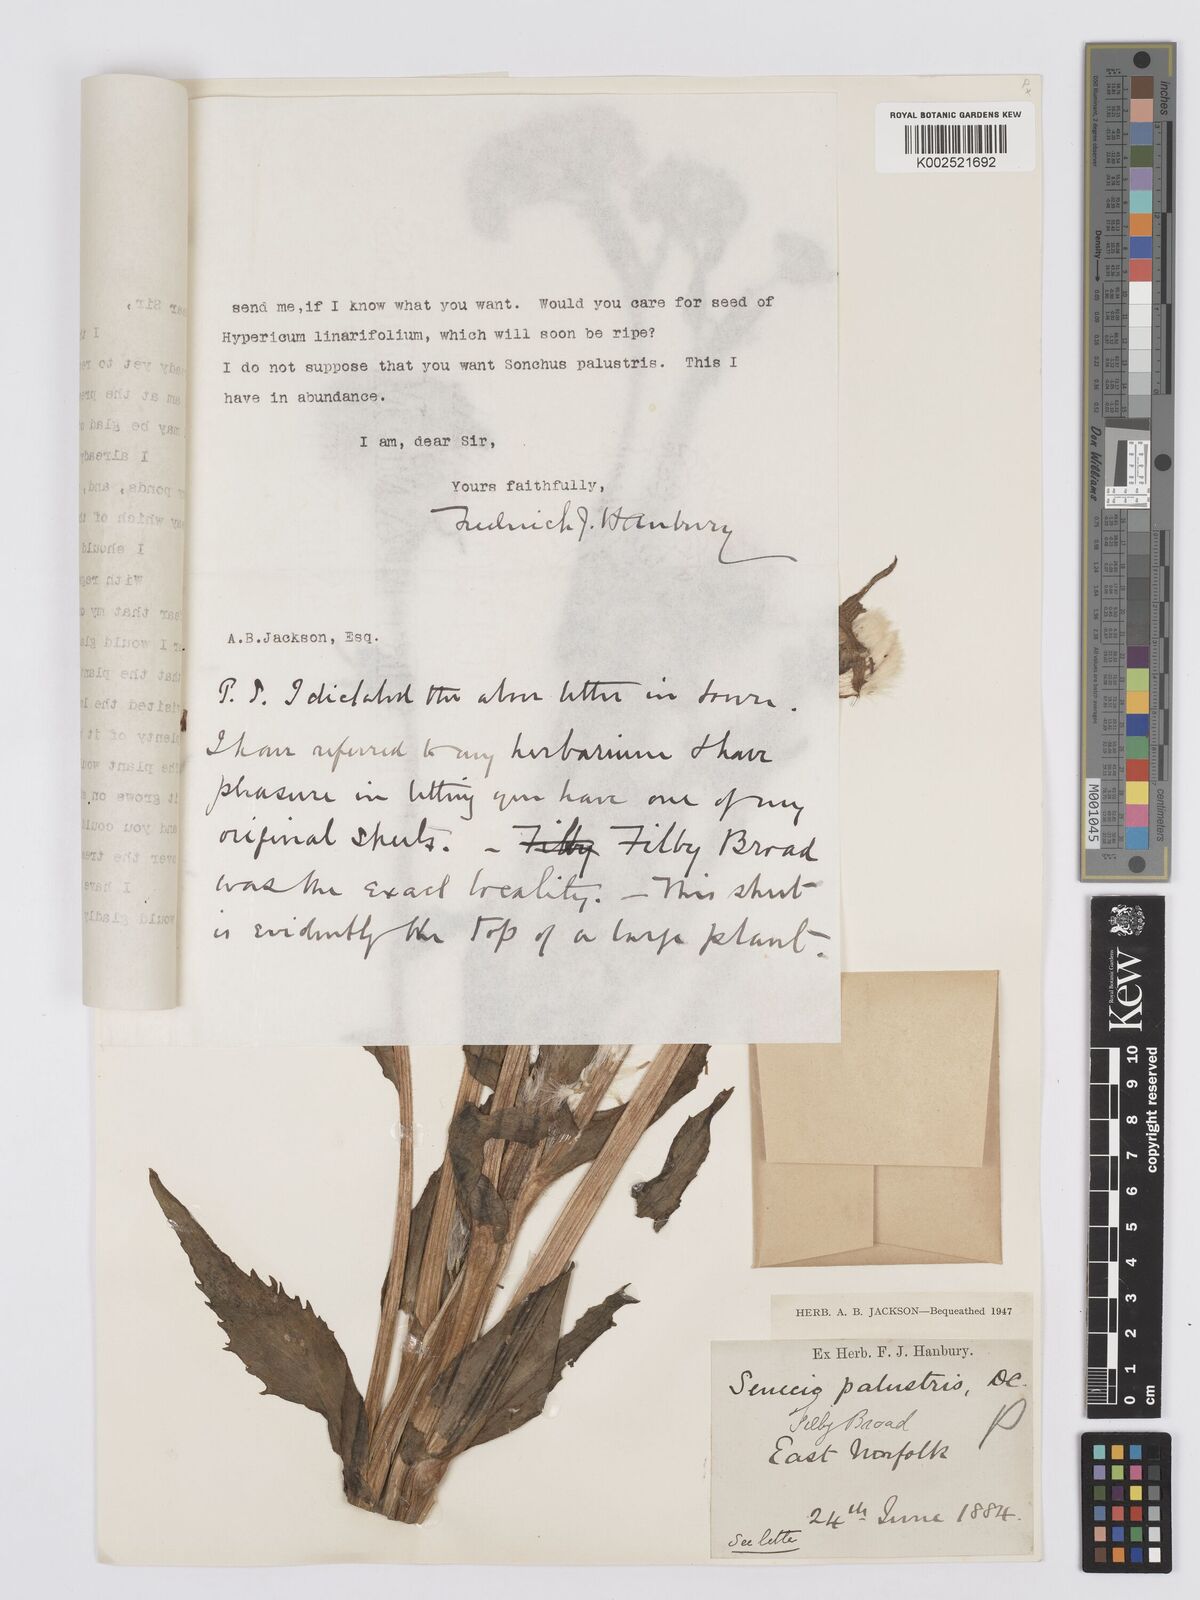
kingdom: Plantae
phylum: Tracheophyta
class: Magnoliopsida
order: Asterales
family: Asteraceae
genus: Tephroseris
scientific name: Tephroseris palustris
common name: Marsh fleawort
